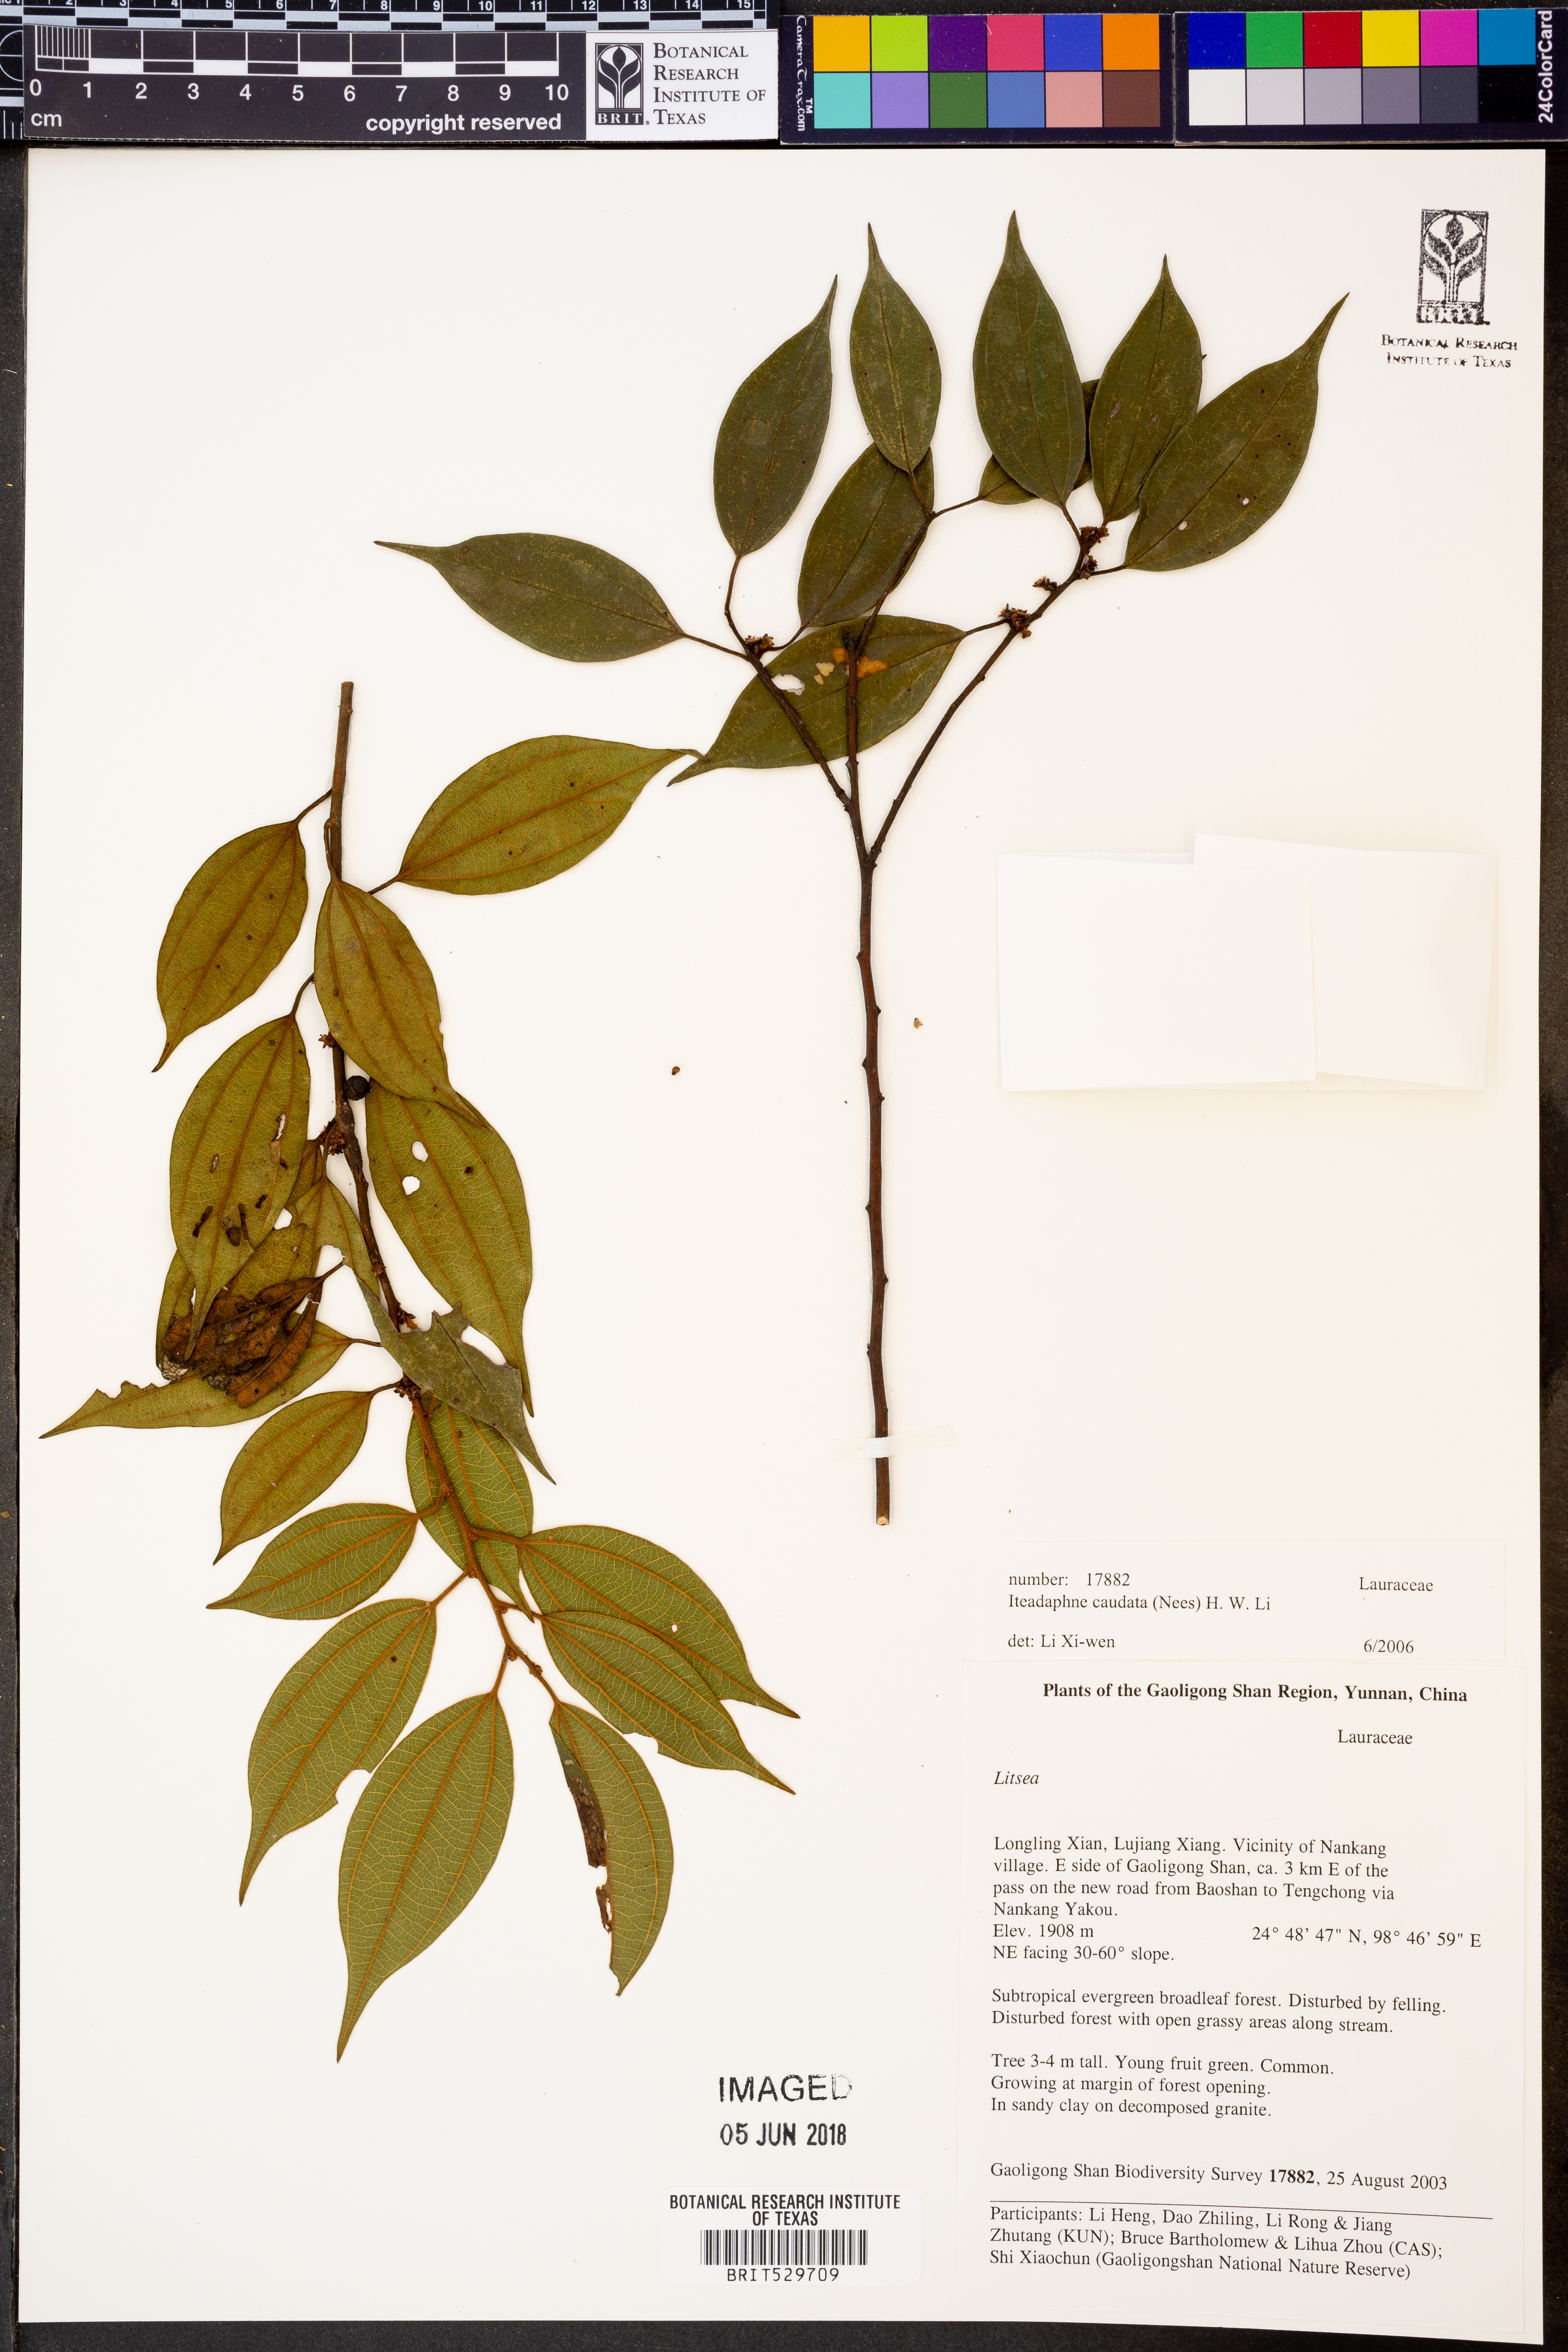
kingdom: Plantae
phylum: Tracheophyta
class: Magnoliopsida
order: Laurales
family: Lauraceae
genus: Lindera
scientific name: Lindera caudata
